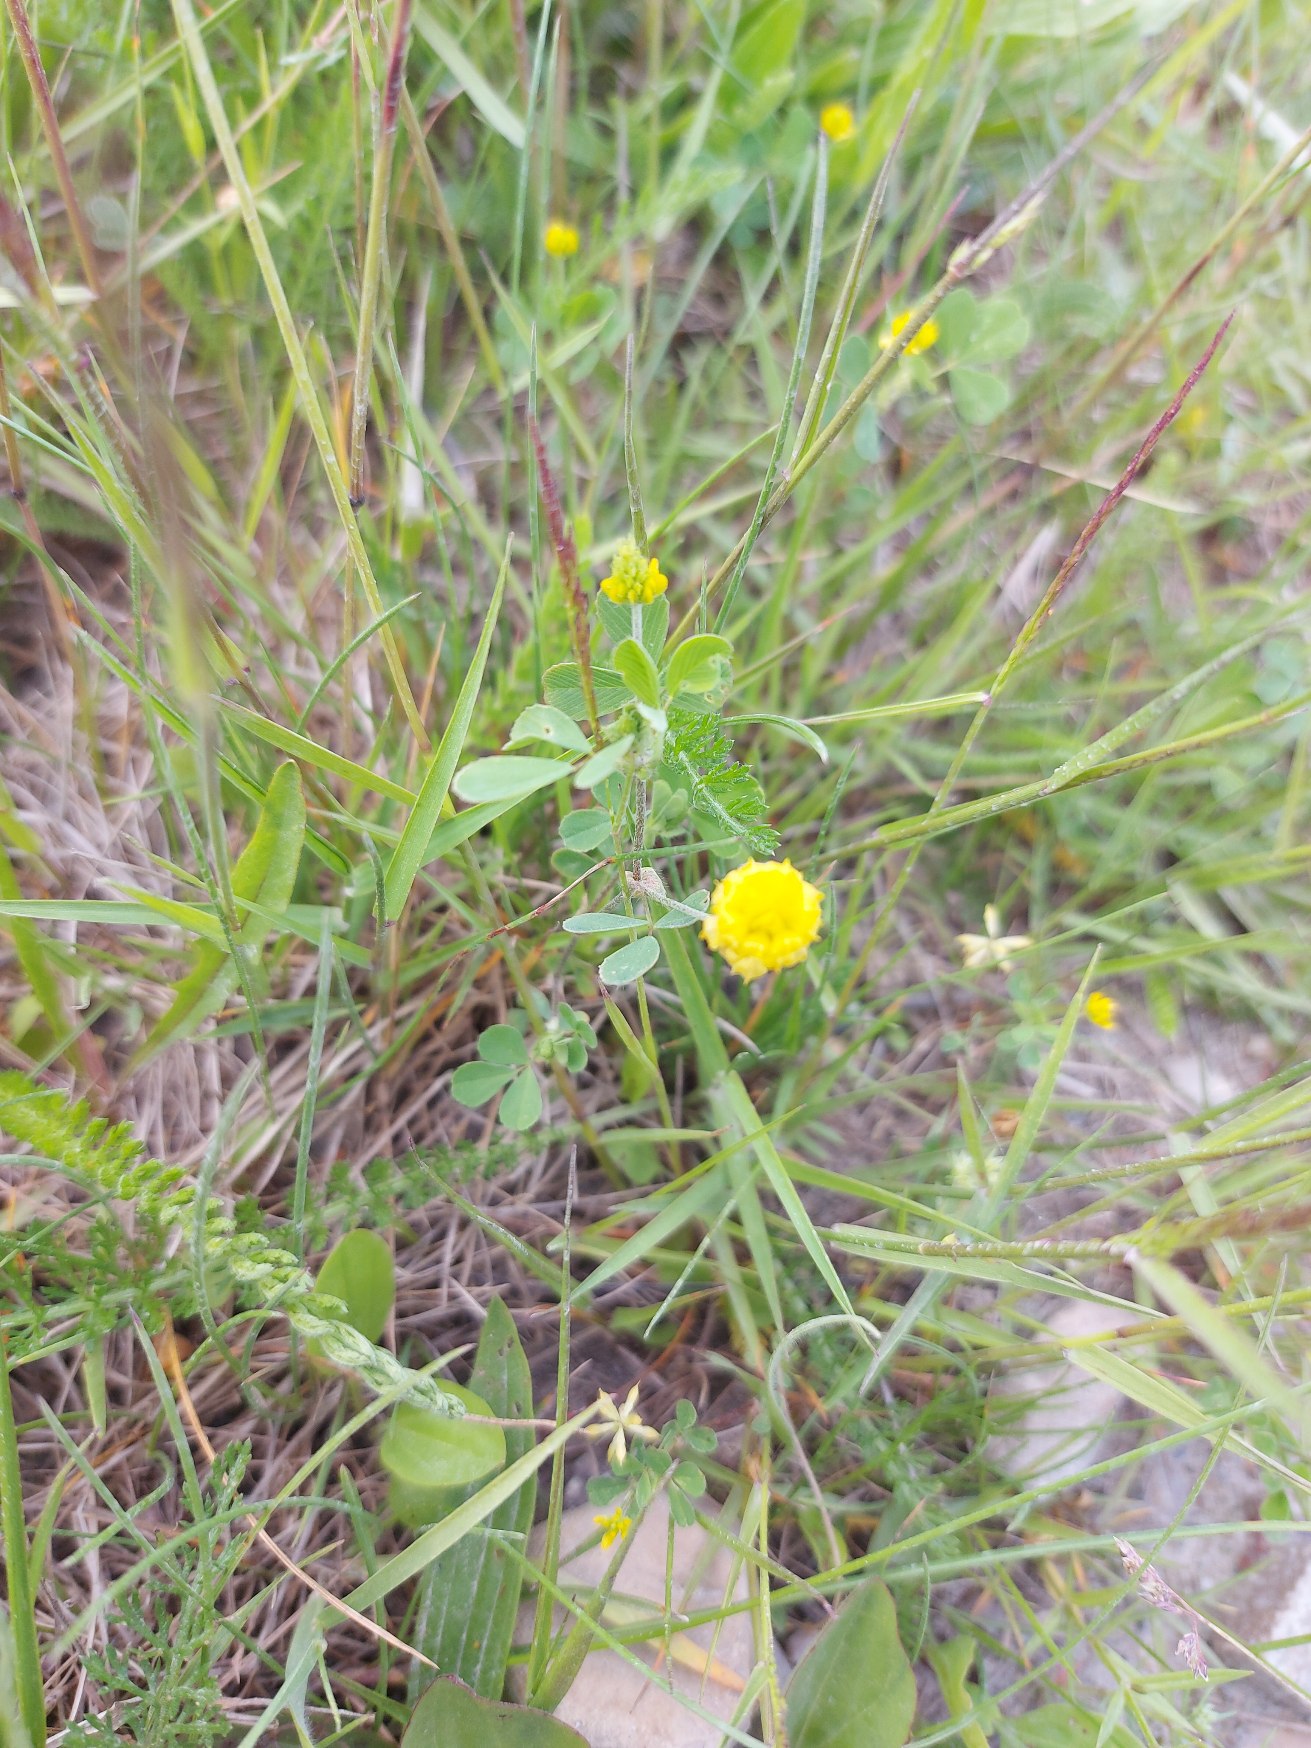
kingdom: Plantae
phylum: Tracheophyta
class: Magnoliopsida
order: Fabales
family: Fabaceae
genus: Trifolium
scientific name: Trifolium campestre
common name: Gul kløver
